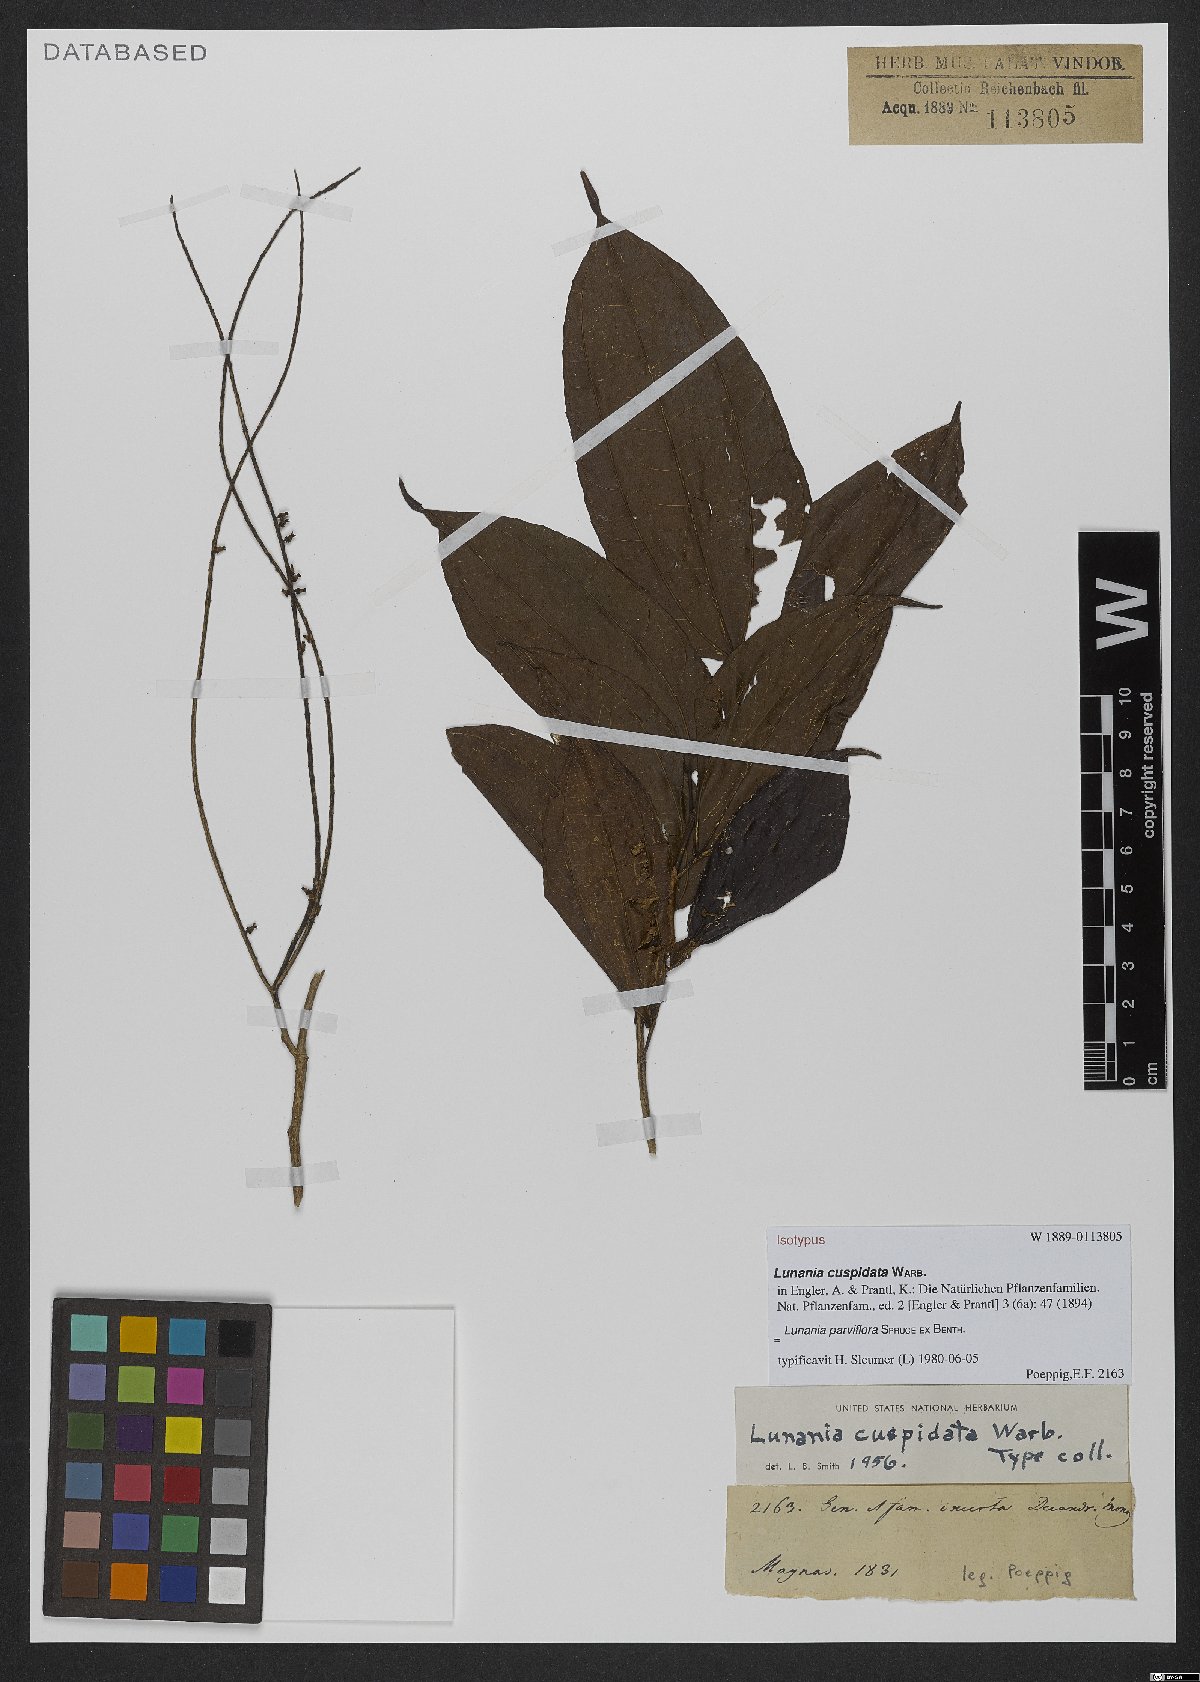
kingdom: Plantae
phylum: Tracheophyta
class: Magnoliopsida
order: Malpighiales
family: Salicaceae
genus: Lunania
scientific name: Lunania parviflora
